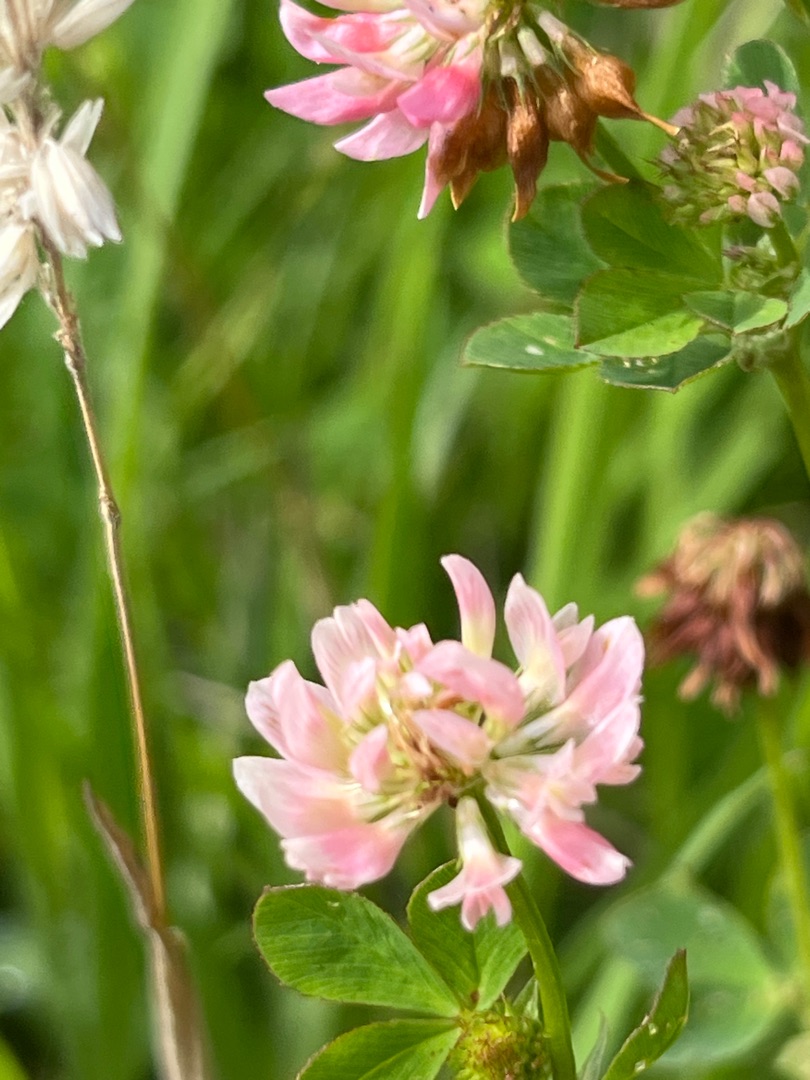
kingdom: Plantae
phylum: Tracheophyta
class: Magnoliopsida
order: Fabales
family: Fabaceae
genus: Trifolium
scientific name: Trifolium hybridum
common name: Alsike-kløver
